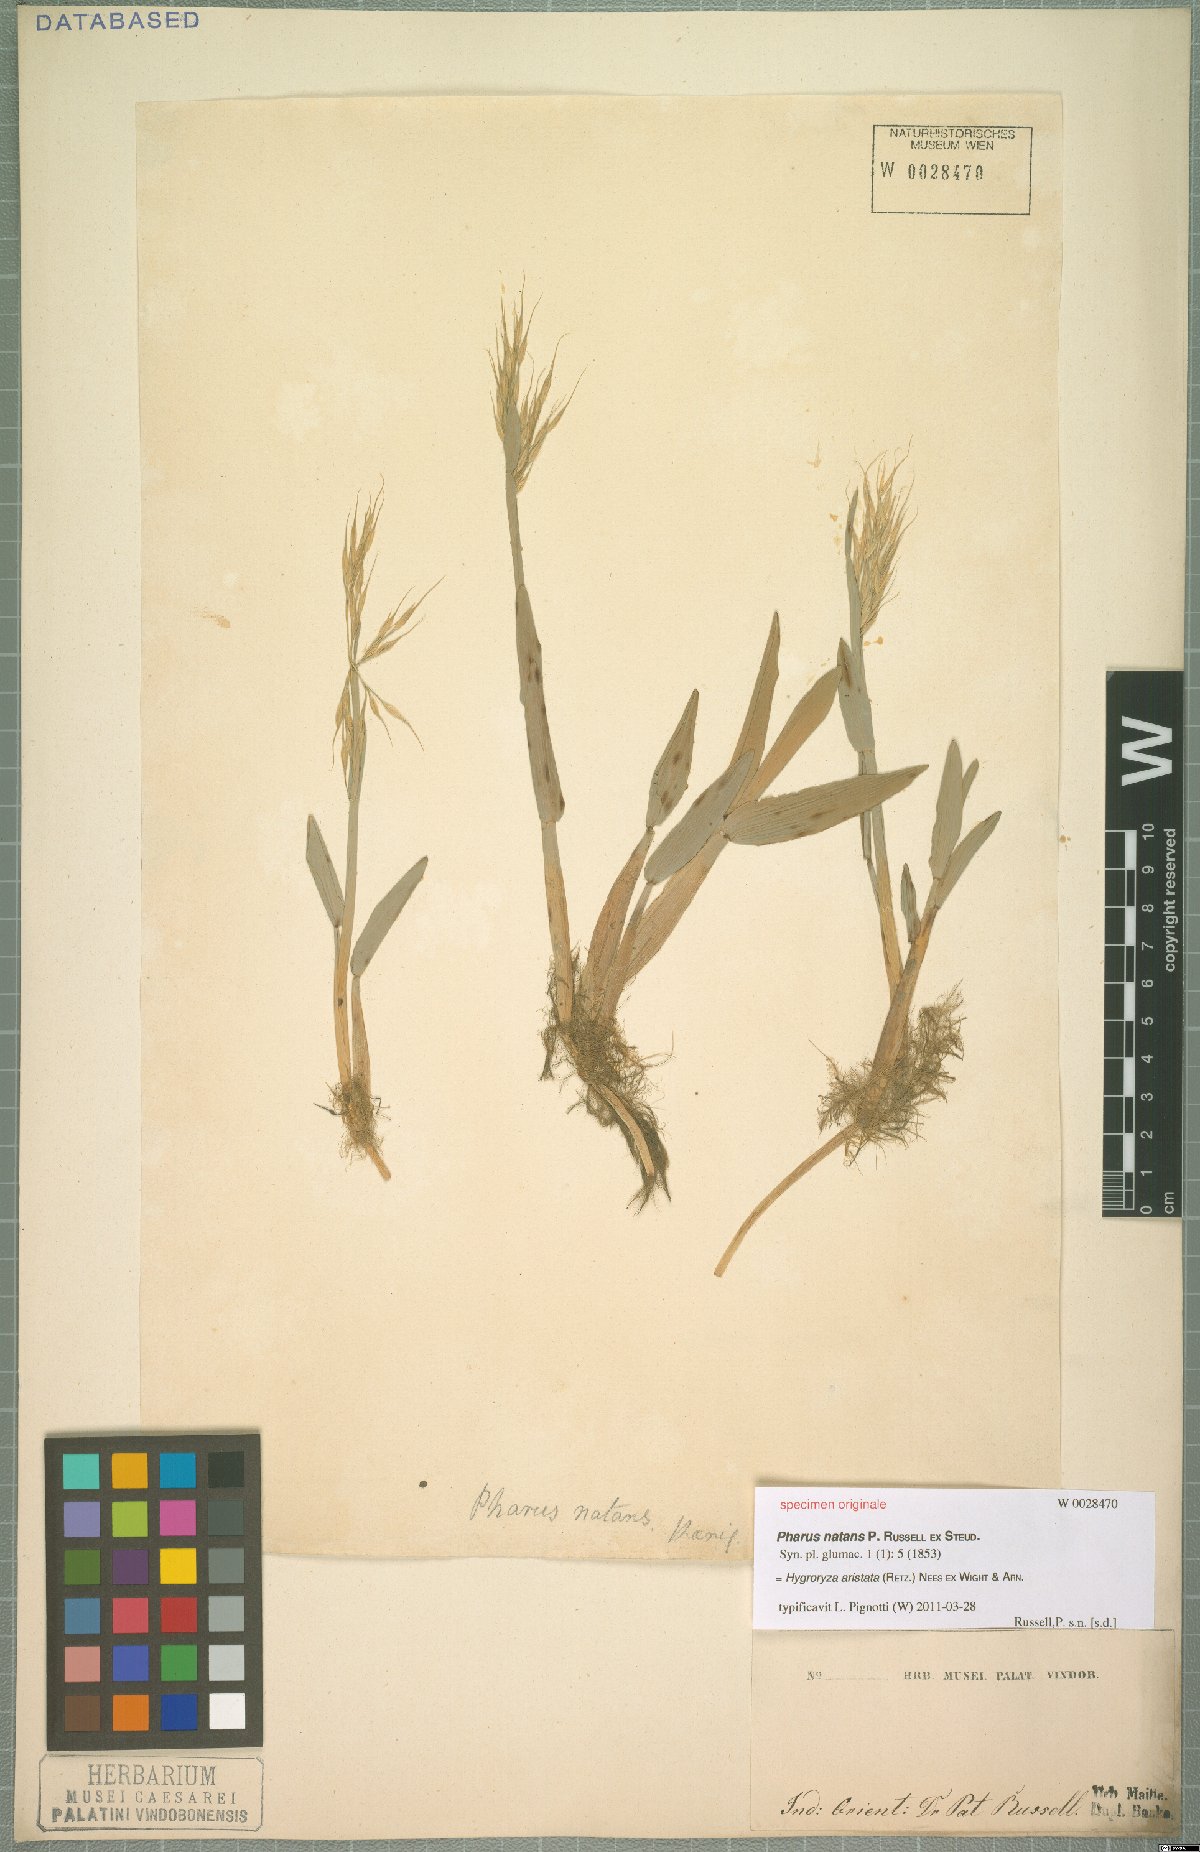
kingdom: Plantae
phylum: Tracheophyta
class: Liliopsida
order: Poales
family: Poaceae
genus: Hygroryza
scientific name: Hygroryza aristata
